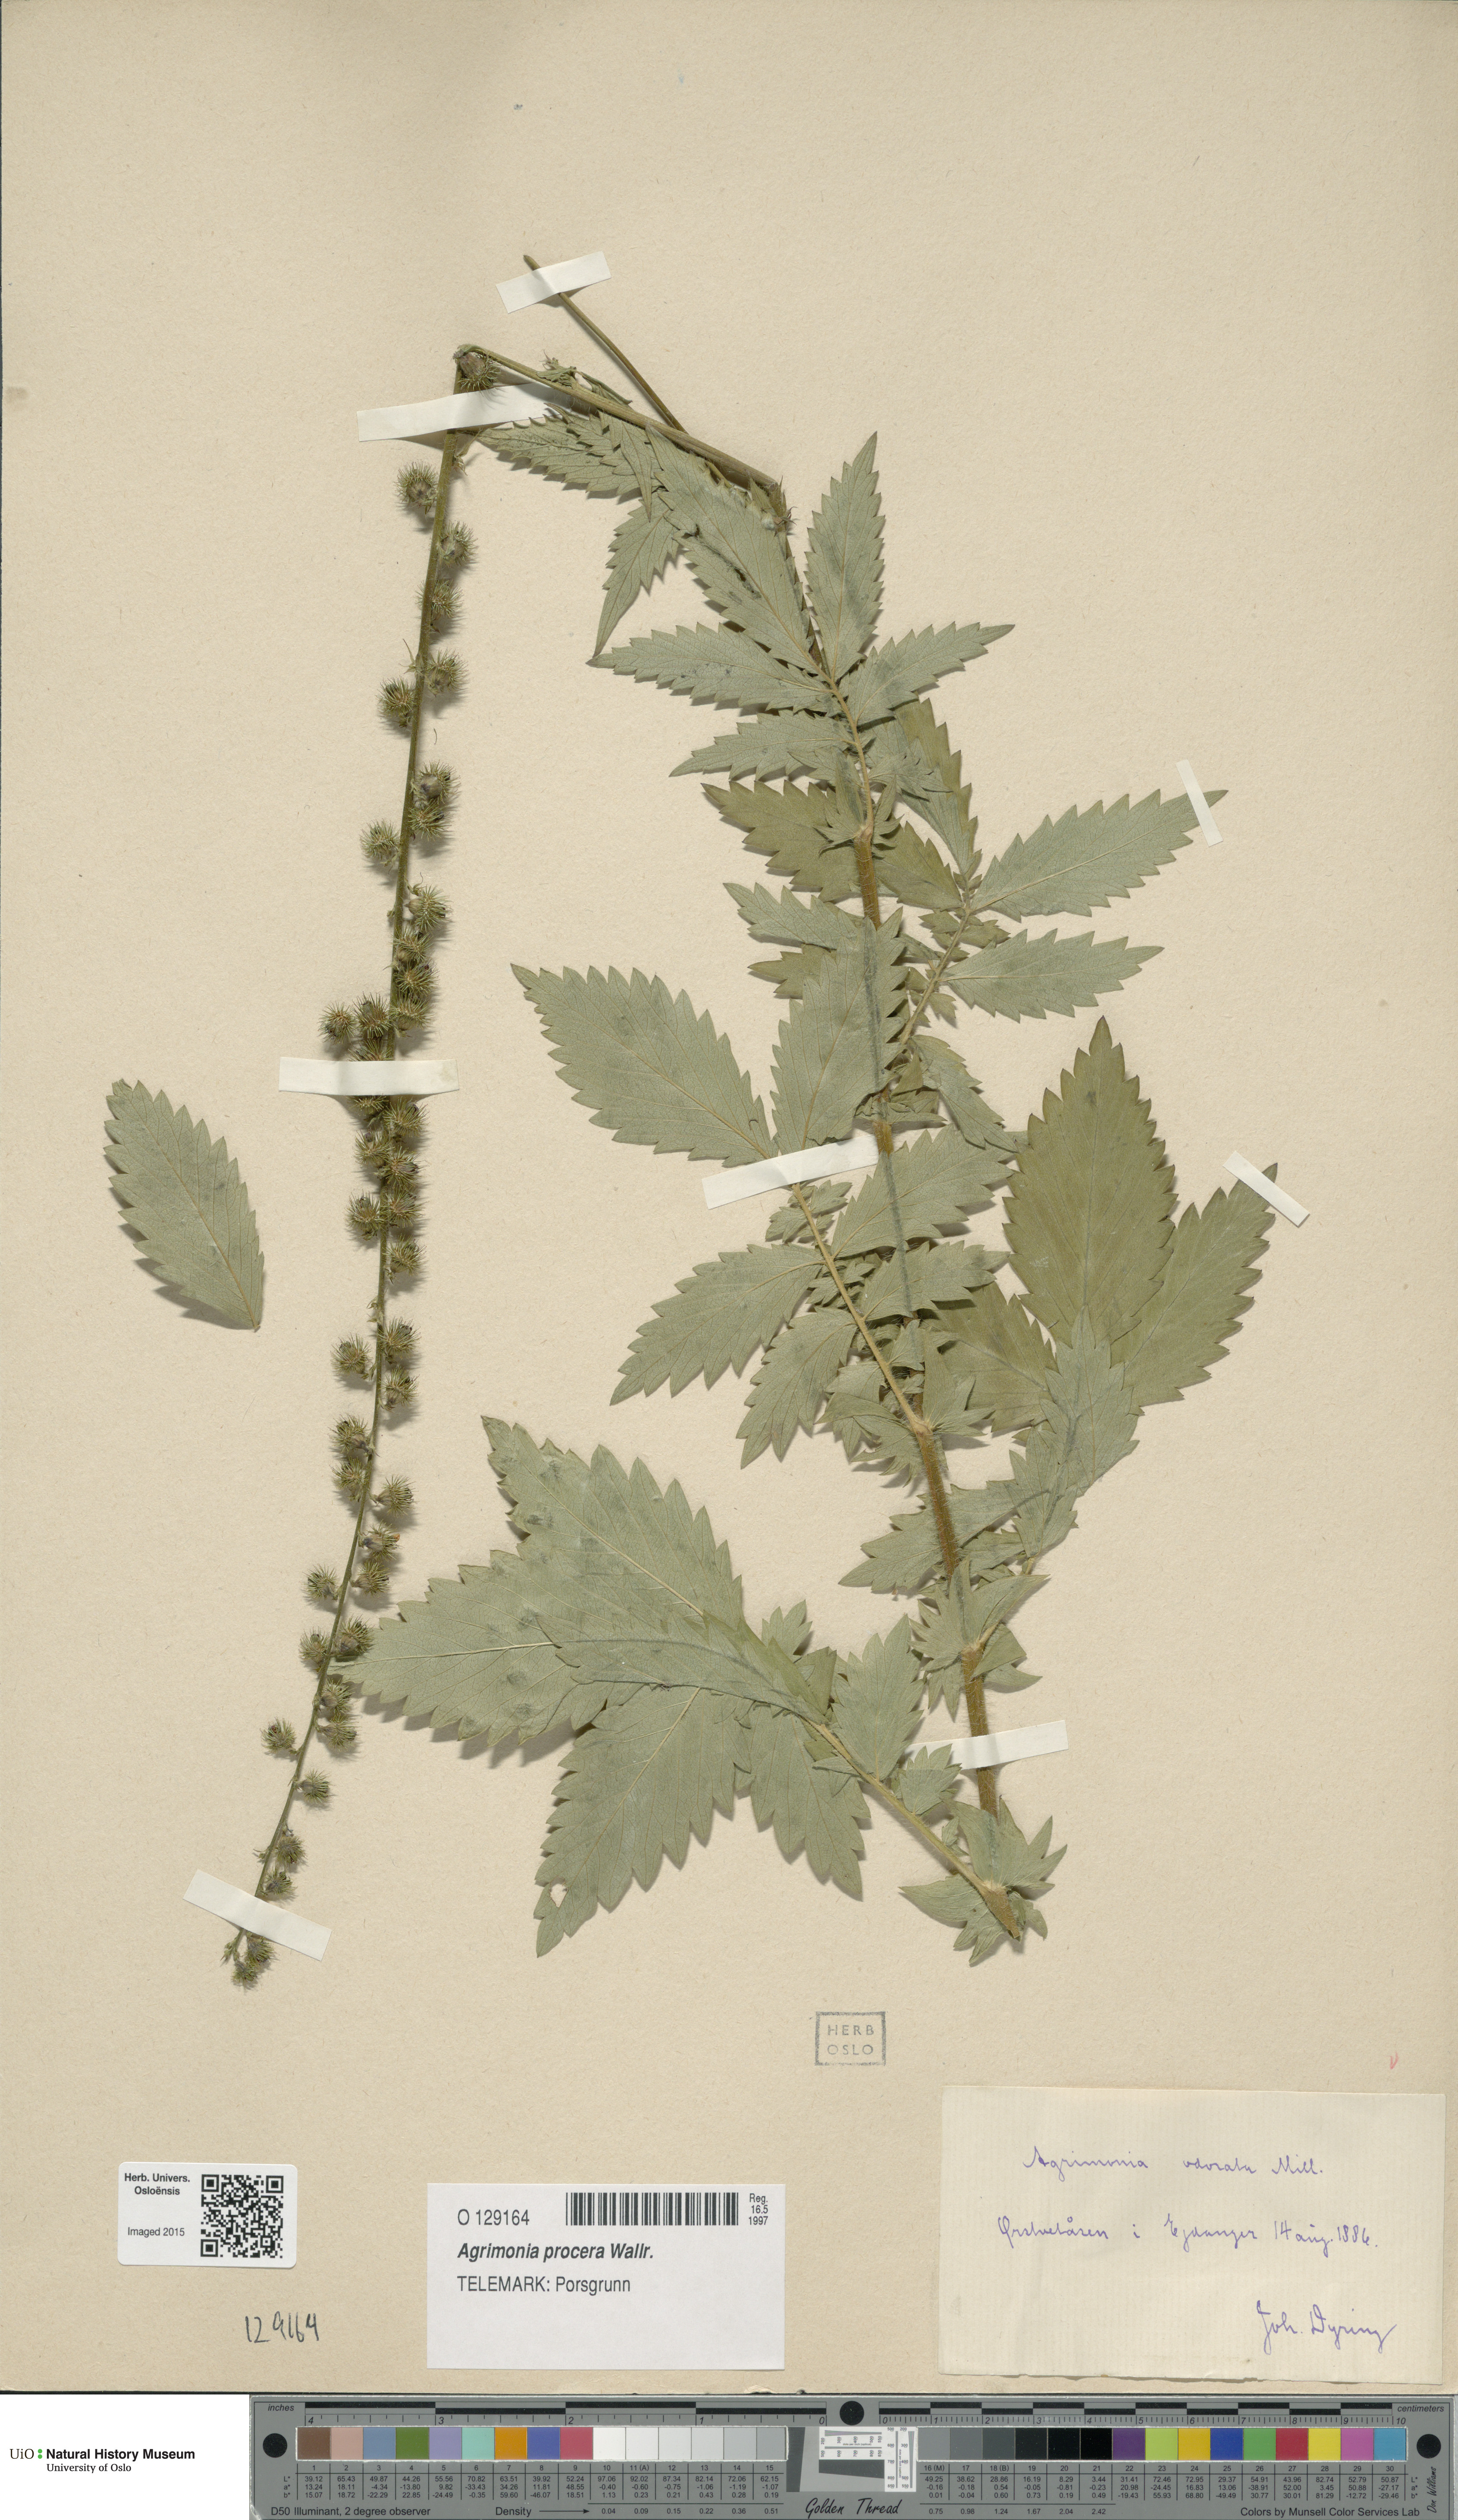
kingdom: Plantae
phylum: Tracheophyta
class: Magnoliopsida
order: Rosales
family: Rosaceae
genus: Agrimonia
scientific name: Agrimonia procera
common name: Fragrant agrimony
